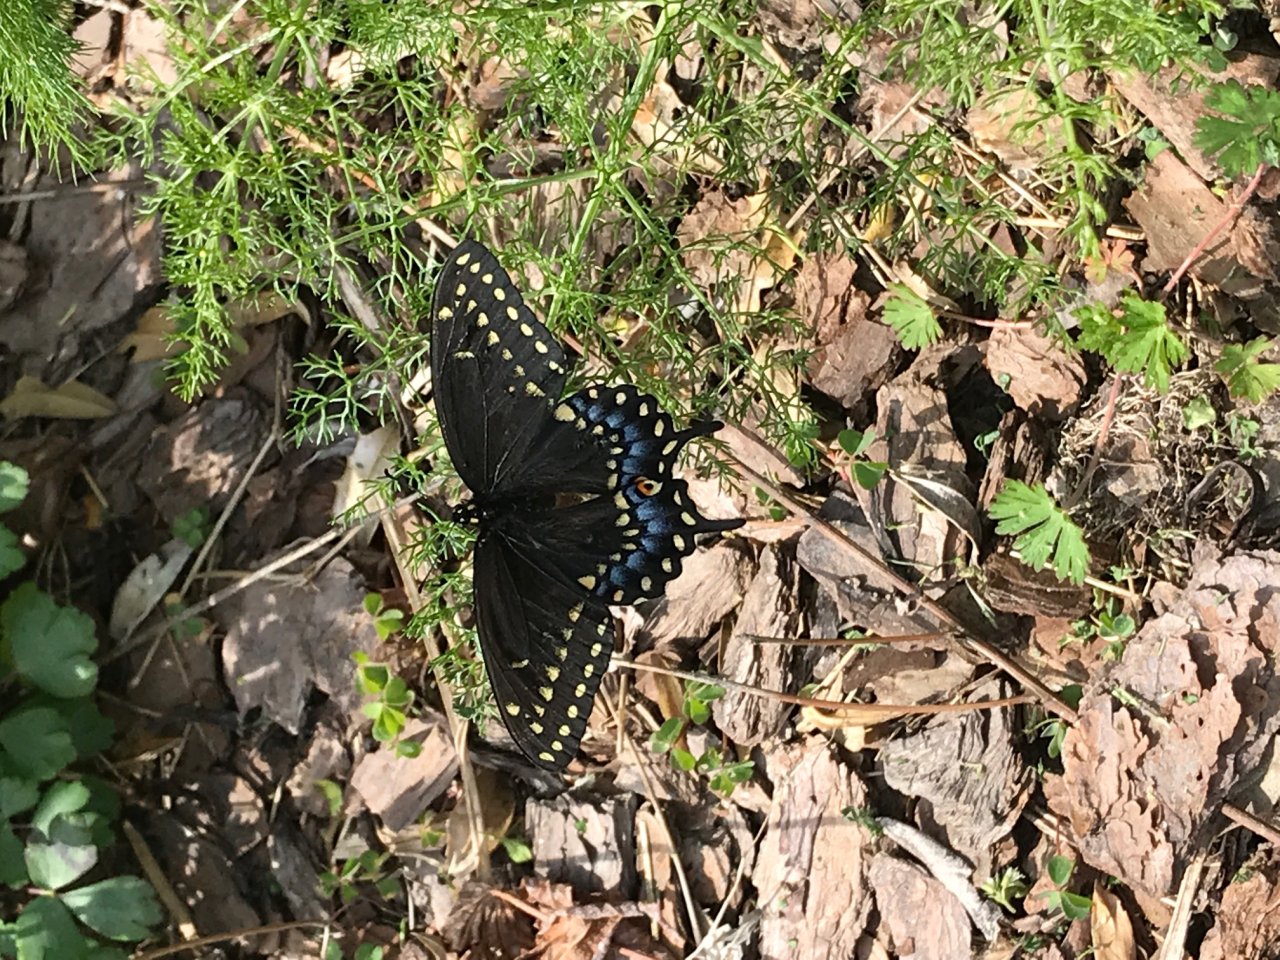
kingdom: Animalia
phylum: Arthropoda
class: Insecta
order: Lepidoptera
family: Papilionidae
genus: Papilio
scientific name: Papilio polyxenes
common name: Black Swallowtail
